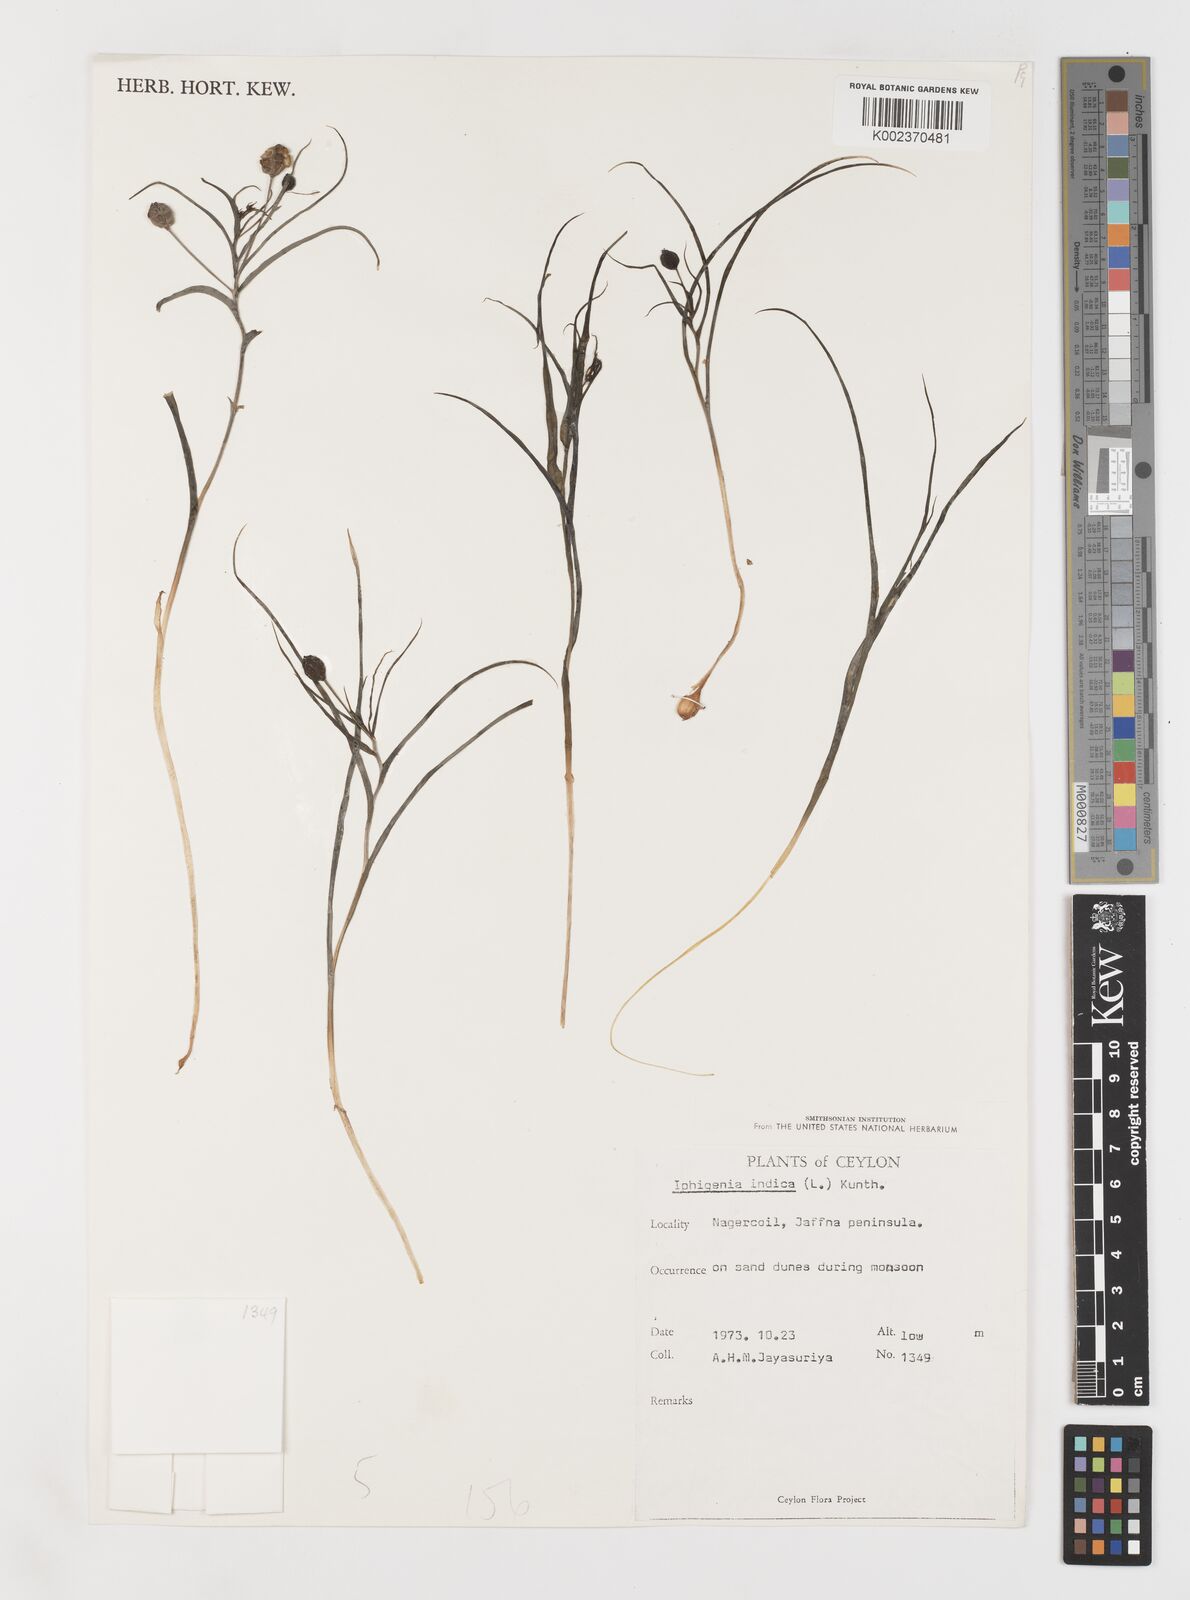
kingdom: Plantae
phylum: Tracheophyta
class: Liliopsida
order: Liliales
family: Colchicaceae
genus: Iphigenia
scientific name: Iphigenia indica
